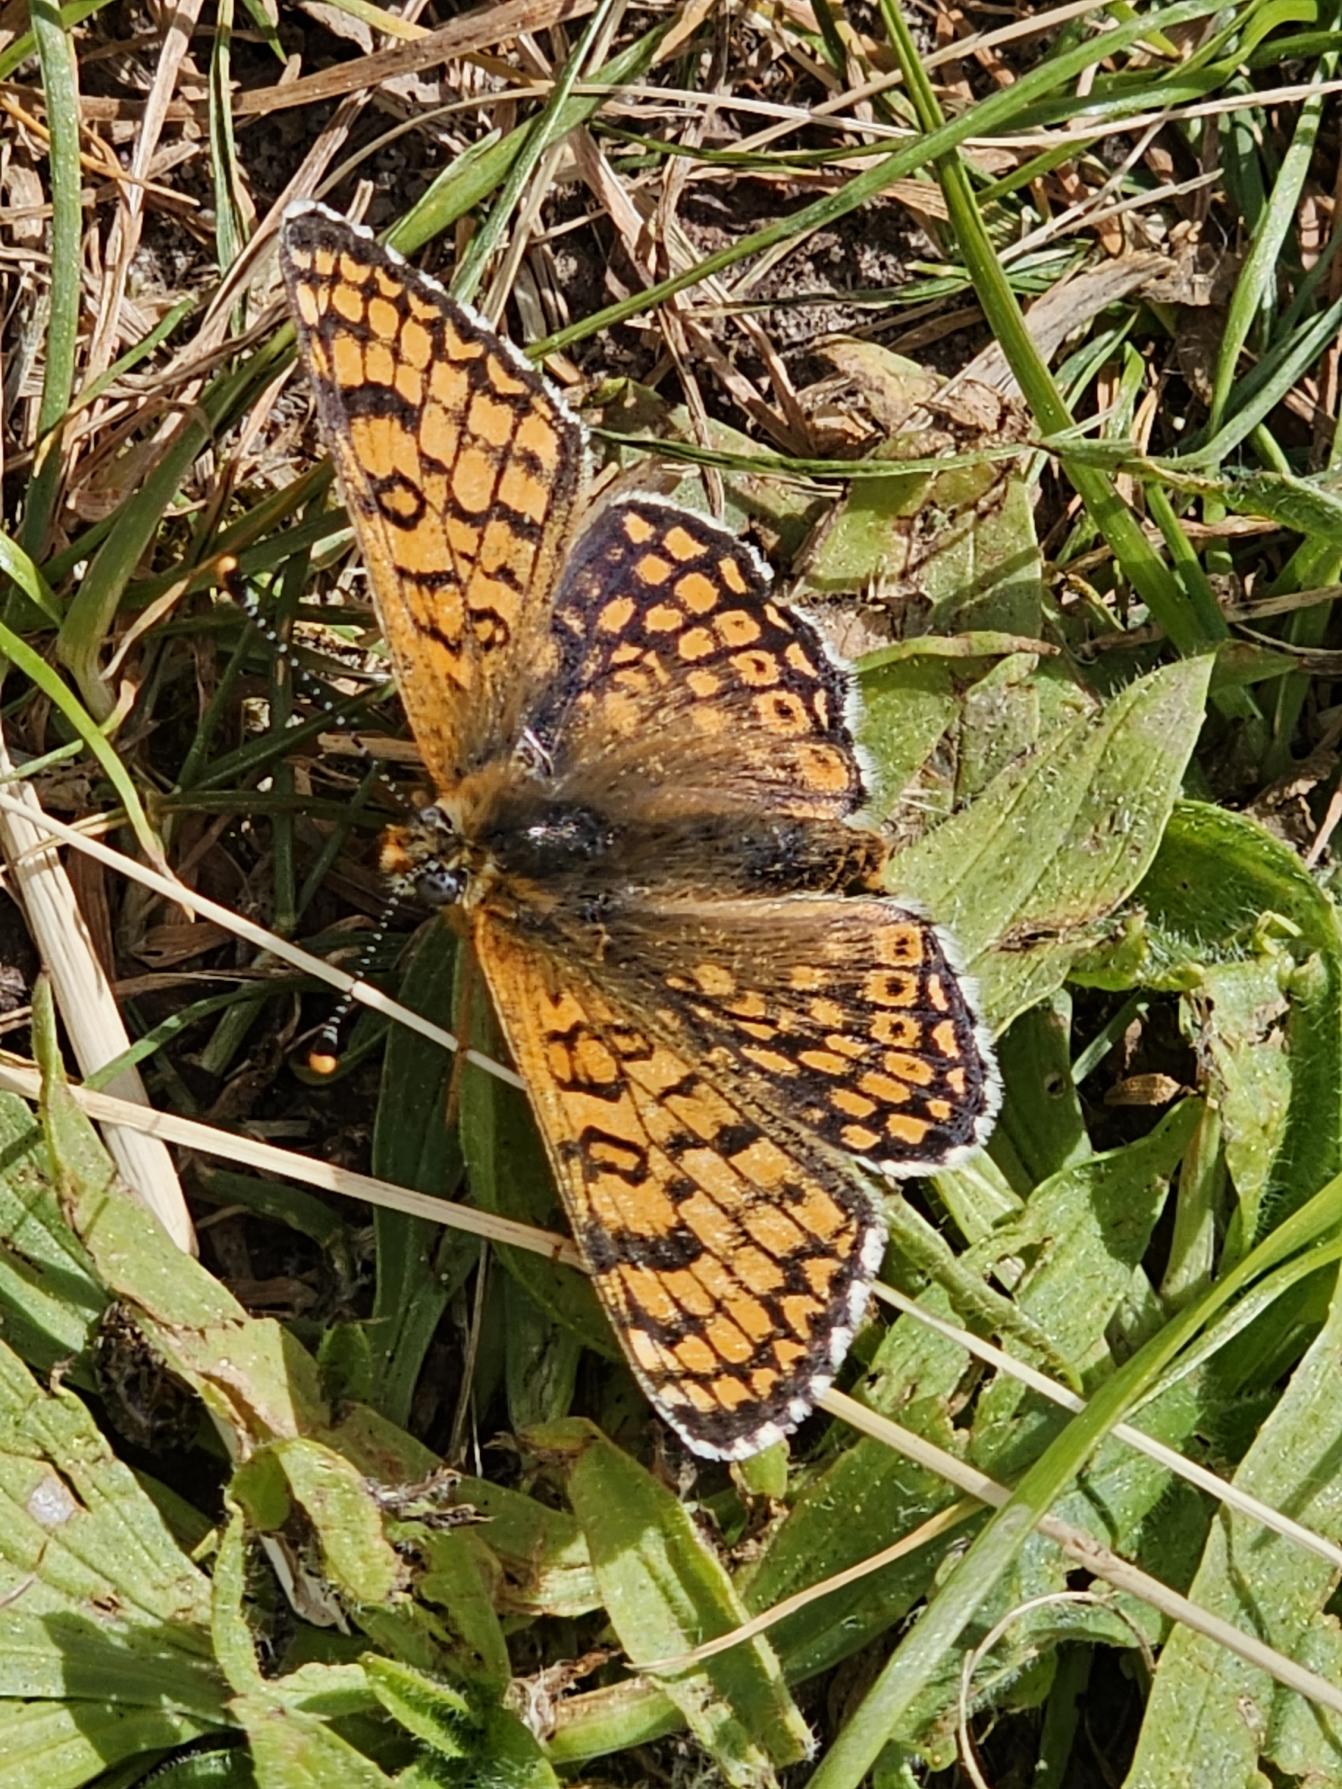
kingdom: Animalia
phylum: Arthropoda
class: Insecta
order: Lepidoptera
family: Nymphalidae
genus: Melitaea
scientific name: Melitaea cinxia
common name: Okkergul pletvinge
